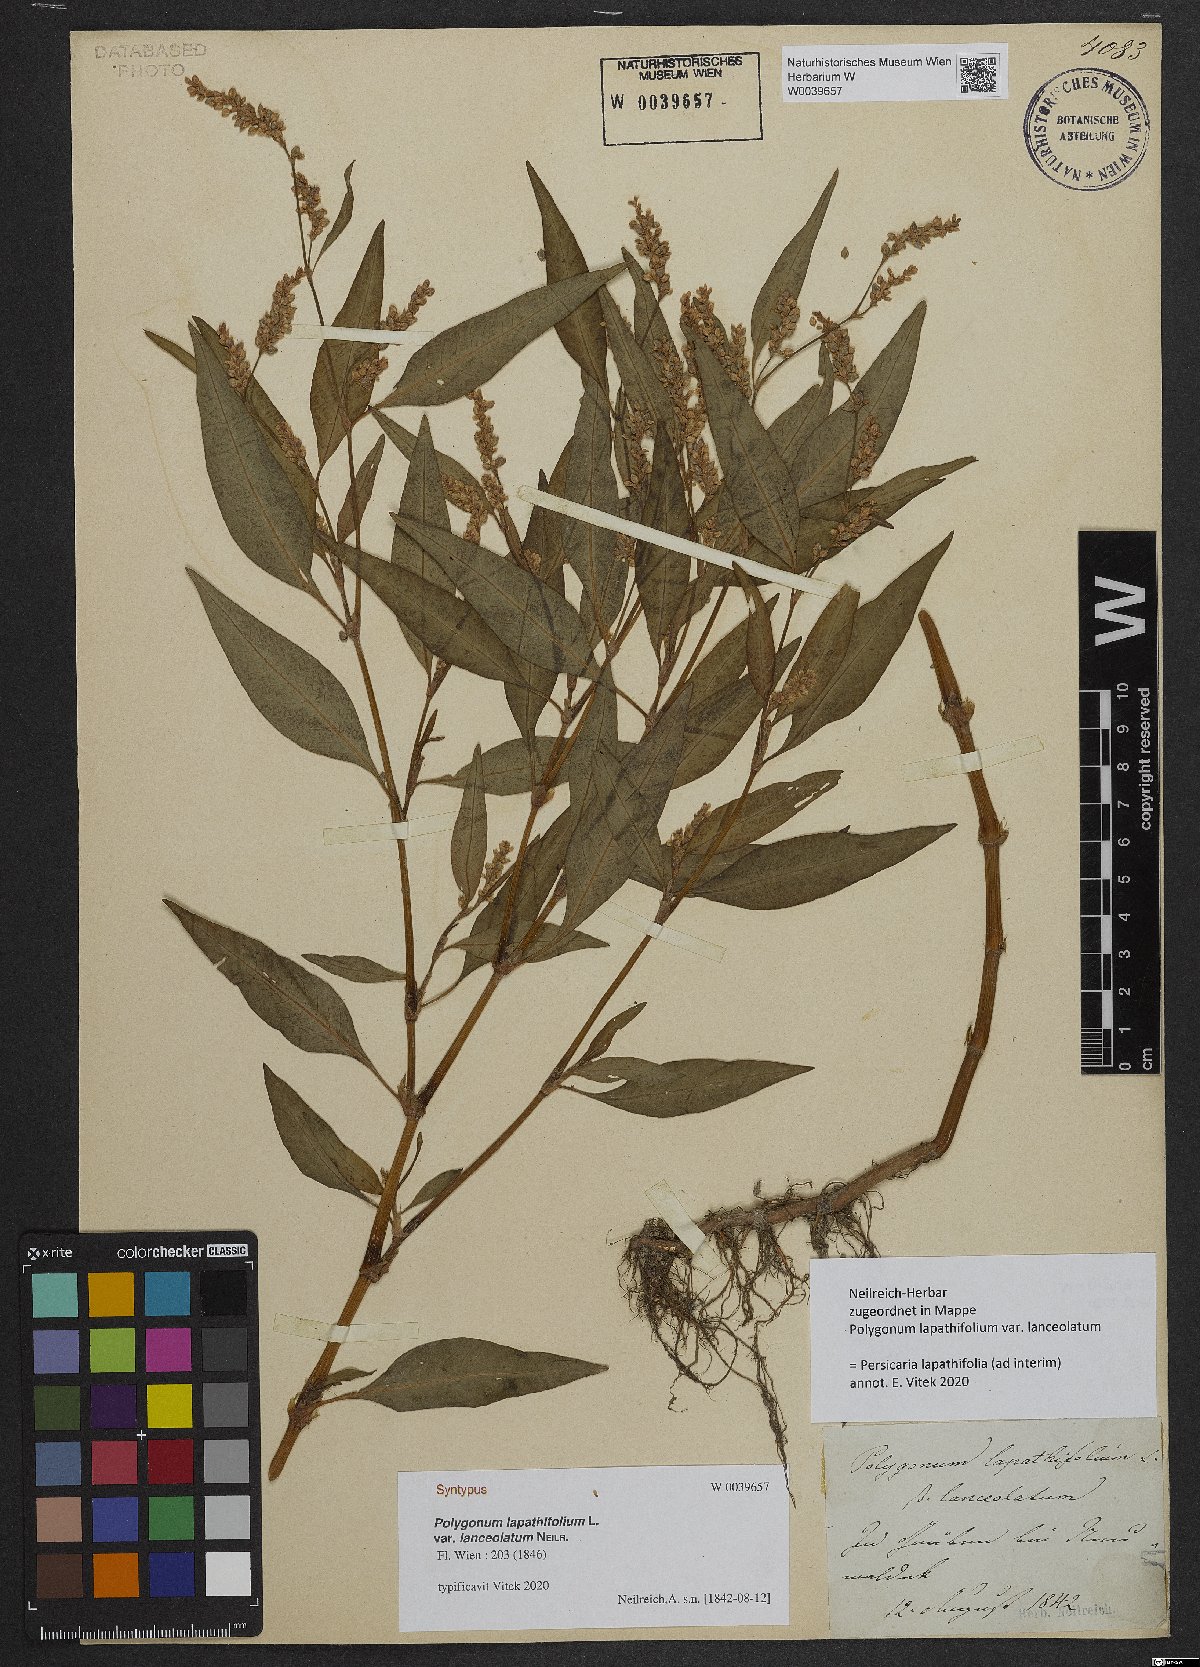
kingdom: Plantae
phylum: Tracheophyta
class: Magnoliopsida
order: Caryophyllales
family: Polygonaceae
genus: Persicaria
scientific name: Persicaria lapathifolia
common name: Curlytop knotweed
